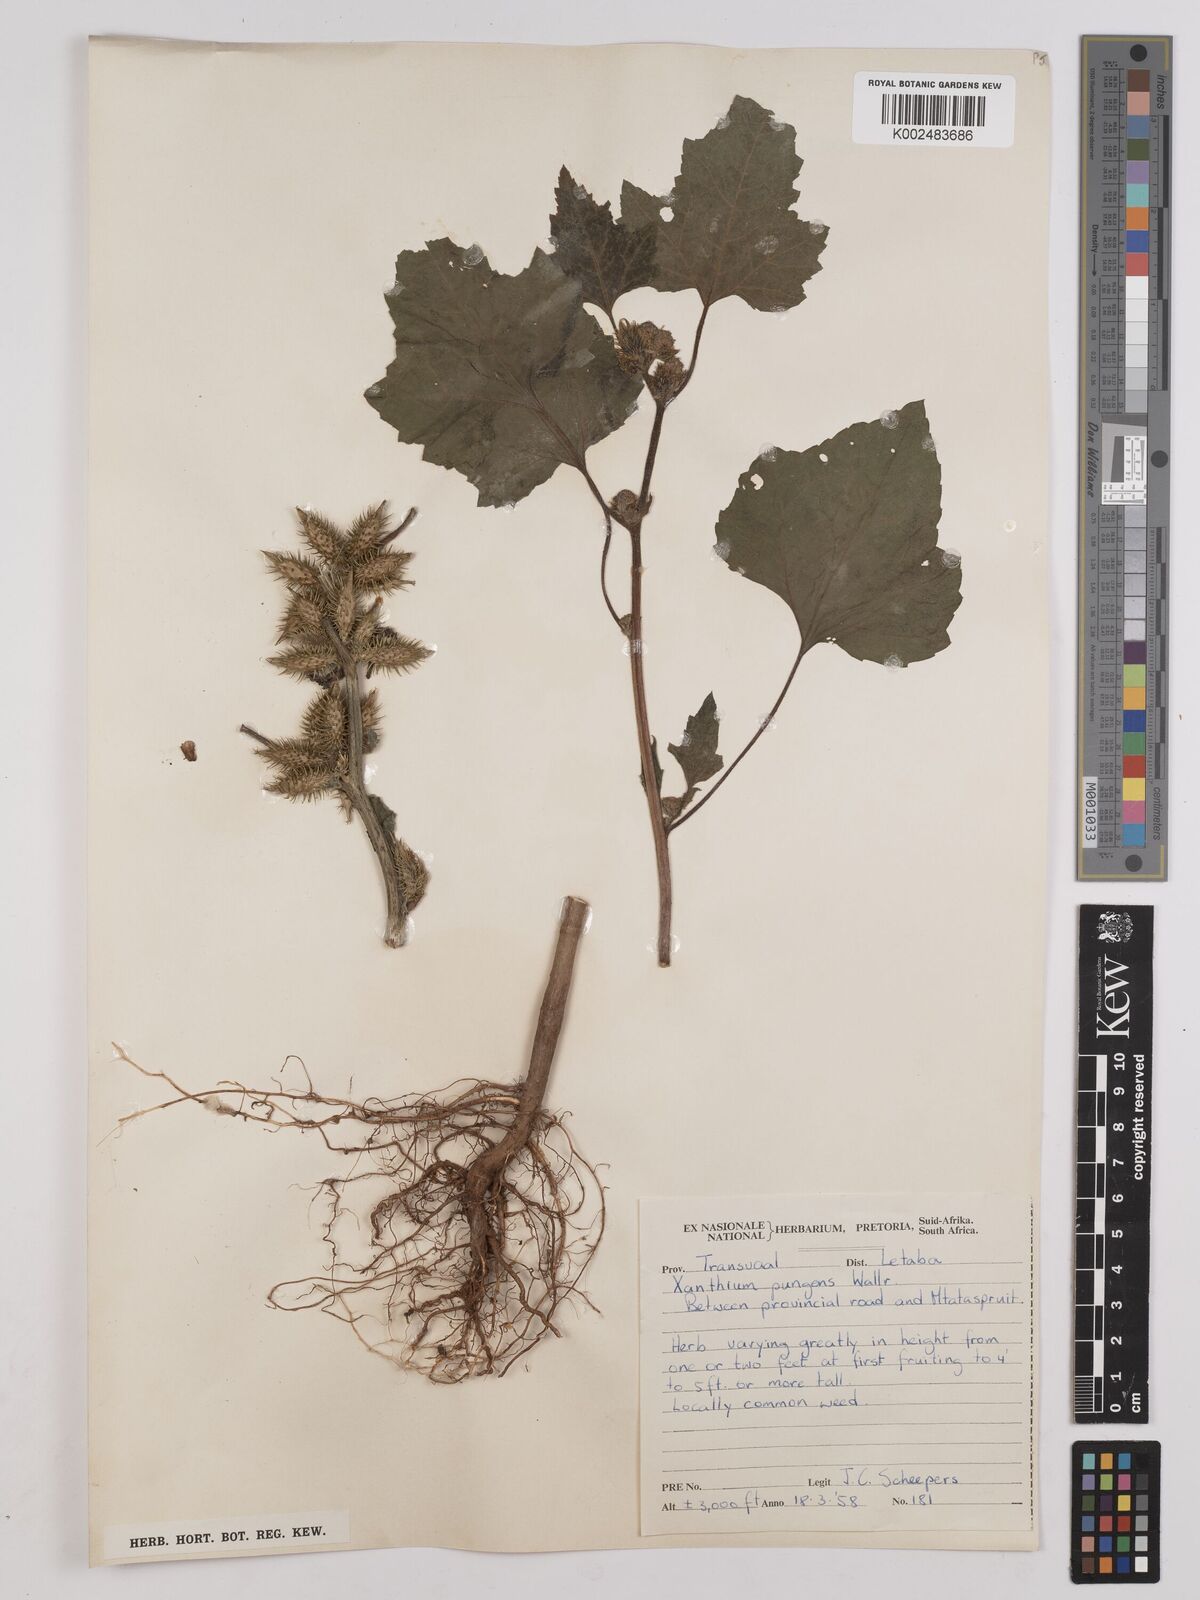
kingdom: Plantae
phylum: Tracheophyta
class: Magnoliopsida
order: Asterales
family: Asteraceae
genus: Xanthium
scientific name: Xanthium occidentale
